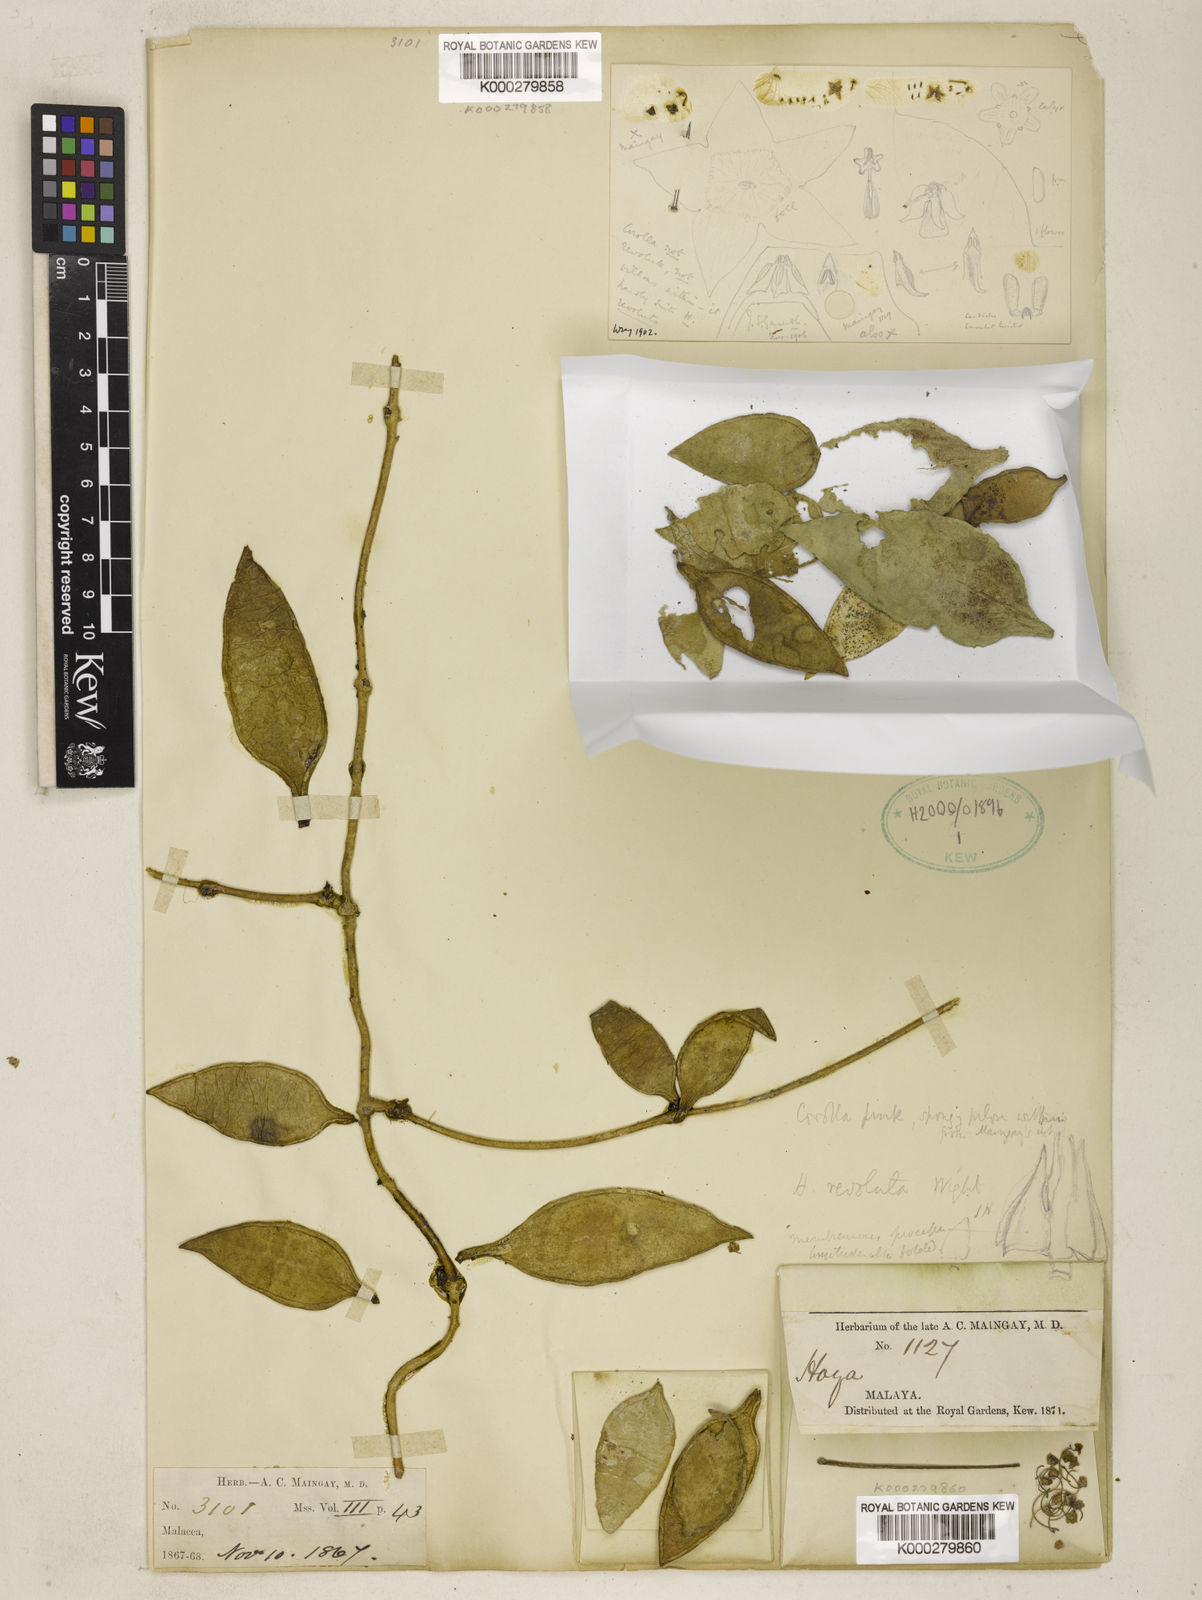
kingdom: Plantae
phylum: Tracheophyta
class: Magnoliopsida
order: Gentianales
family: Apocynaceae
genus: Hoya
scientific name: Hoya
